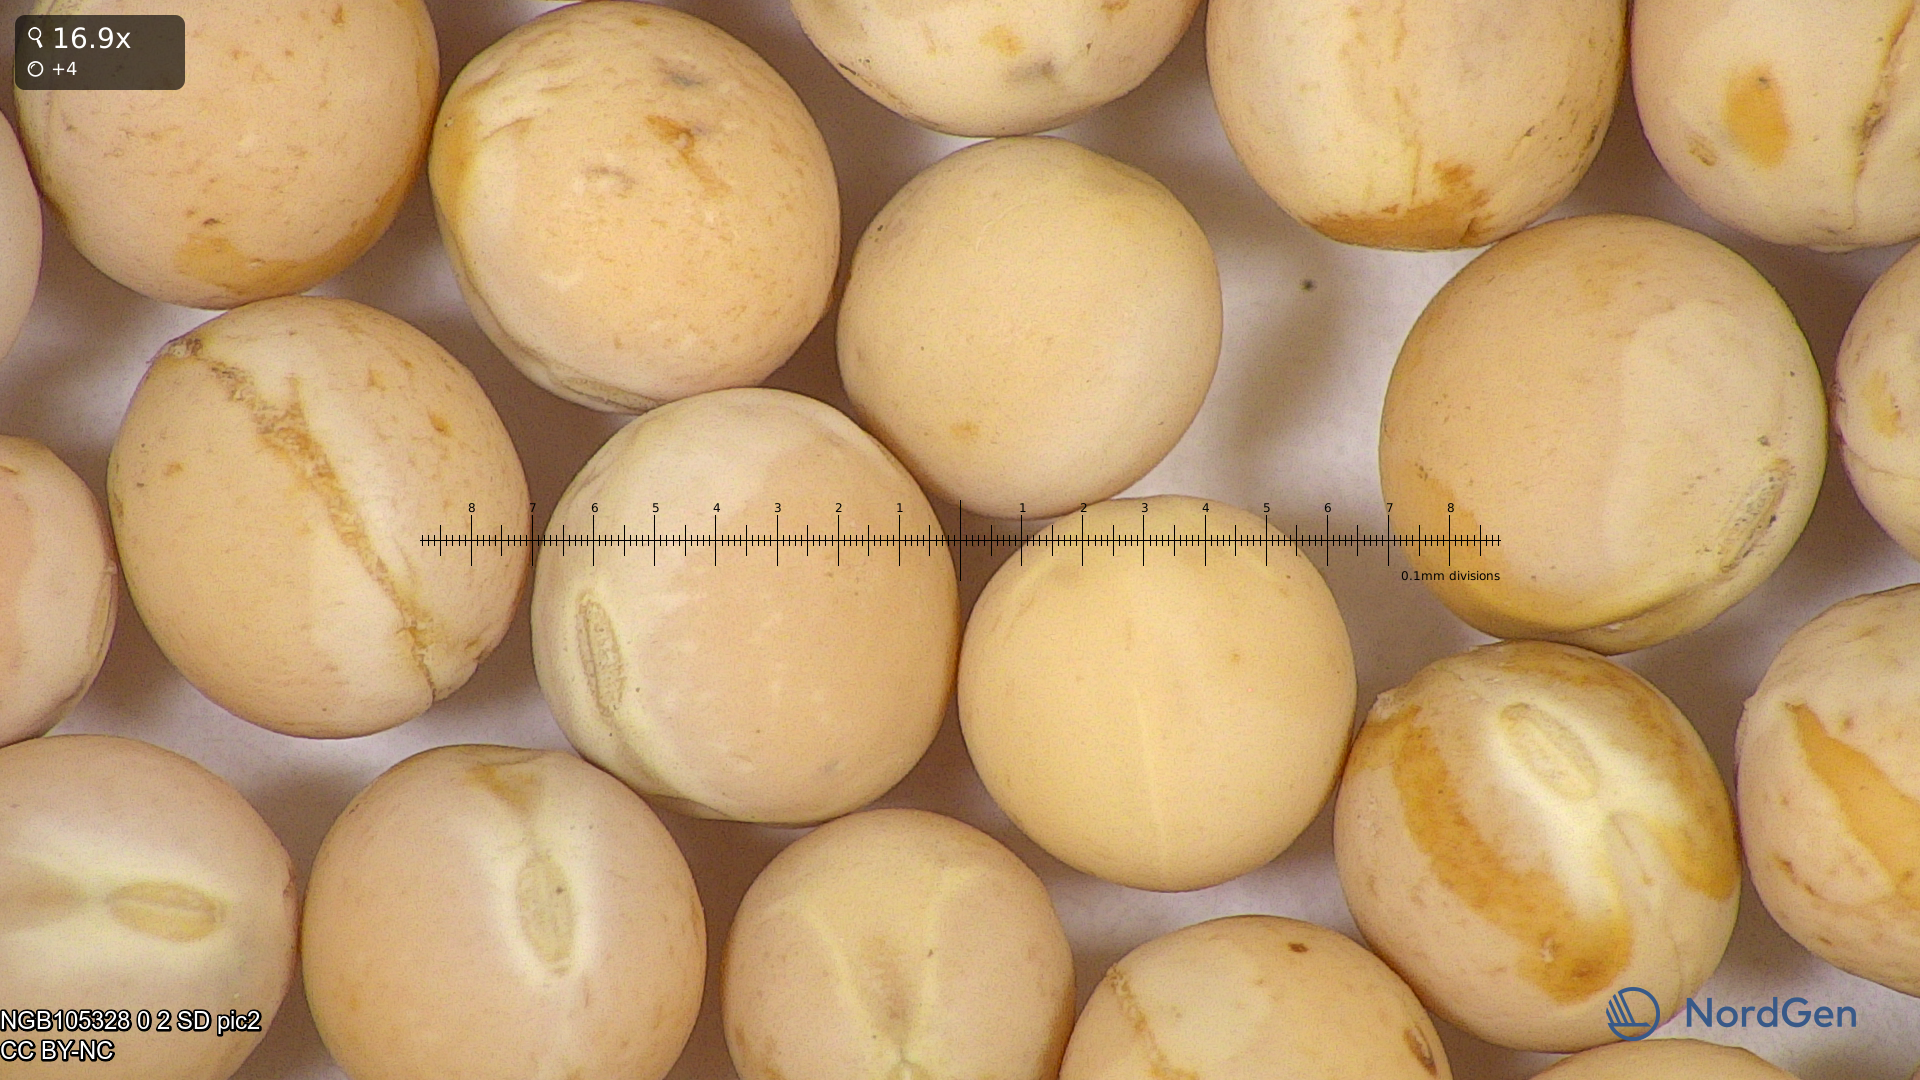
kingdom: Plantae
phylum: Tracheophyta
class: Magnoliopsida
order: Fabales
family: Fabaceae
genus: Lathyrus
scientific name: Lathyrus oleraceus
